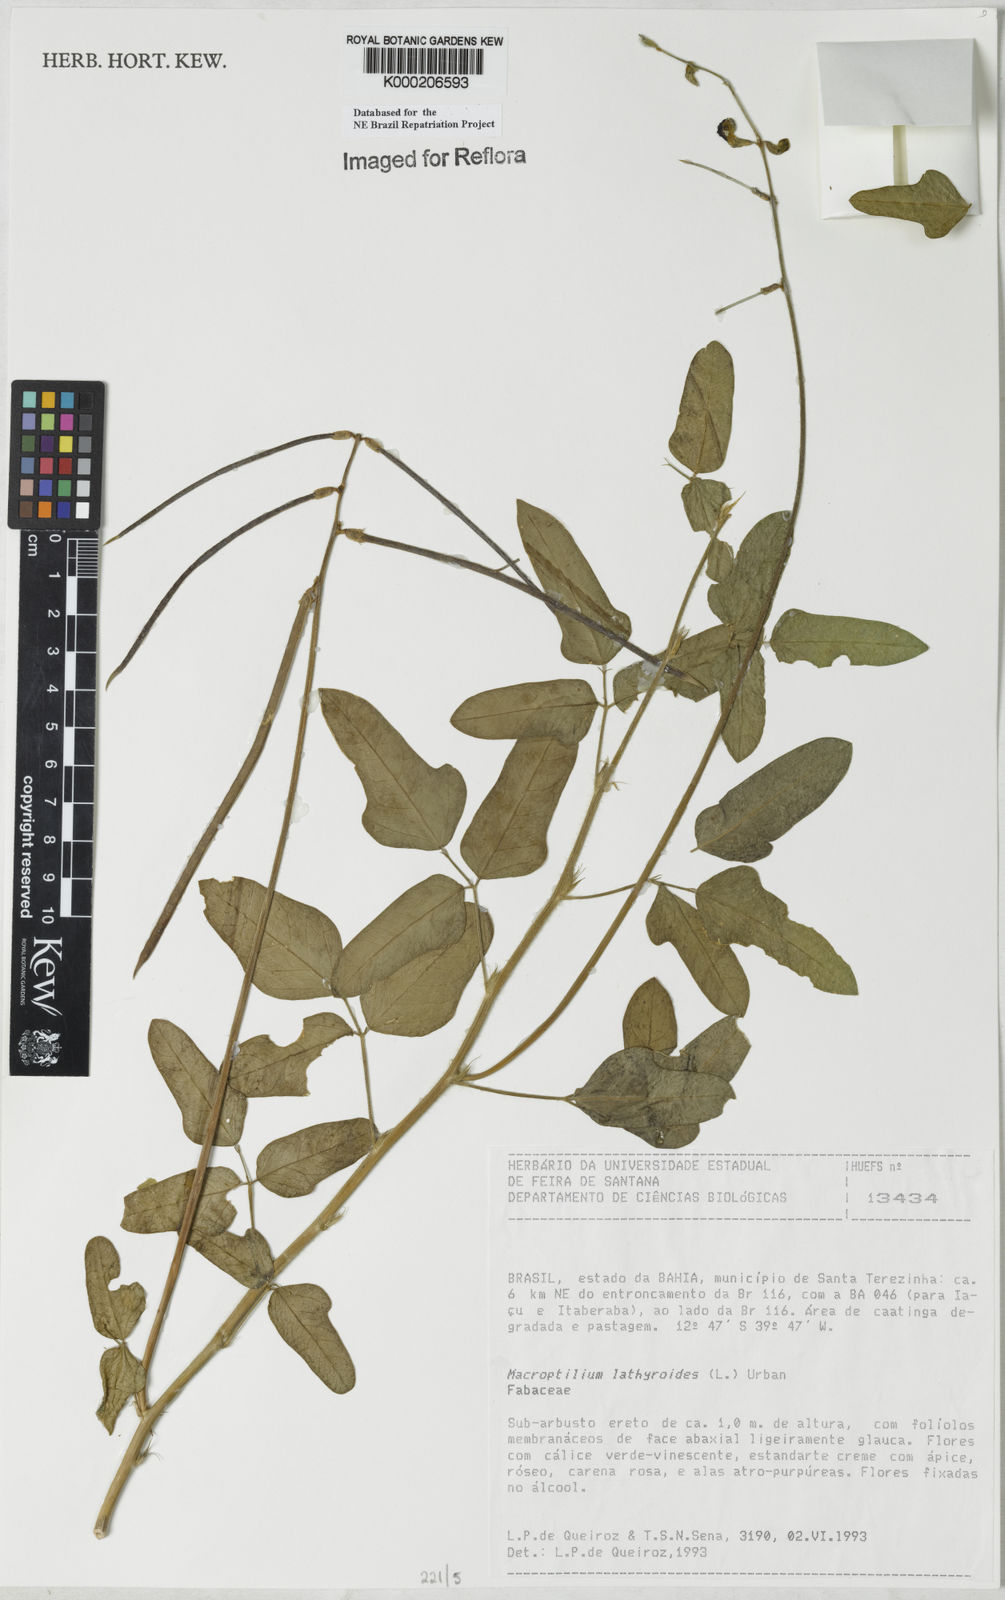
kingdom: Plantae
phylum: Tracheophyta
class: Magnoliopsida
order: Fabales
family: Fabaceae
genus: Macroptilium
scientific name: Macroptilium lathyroides
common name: Wild bushbean
